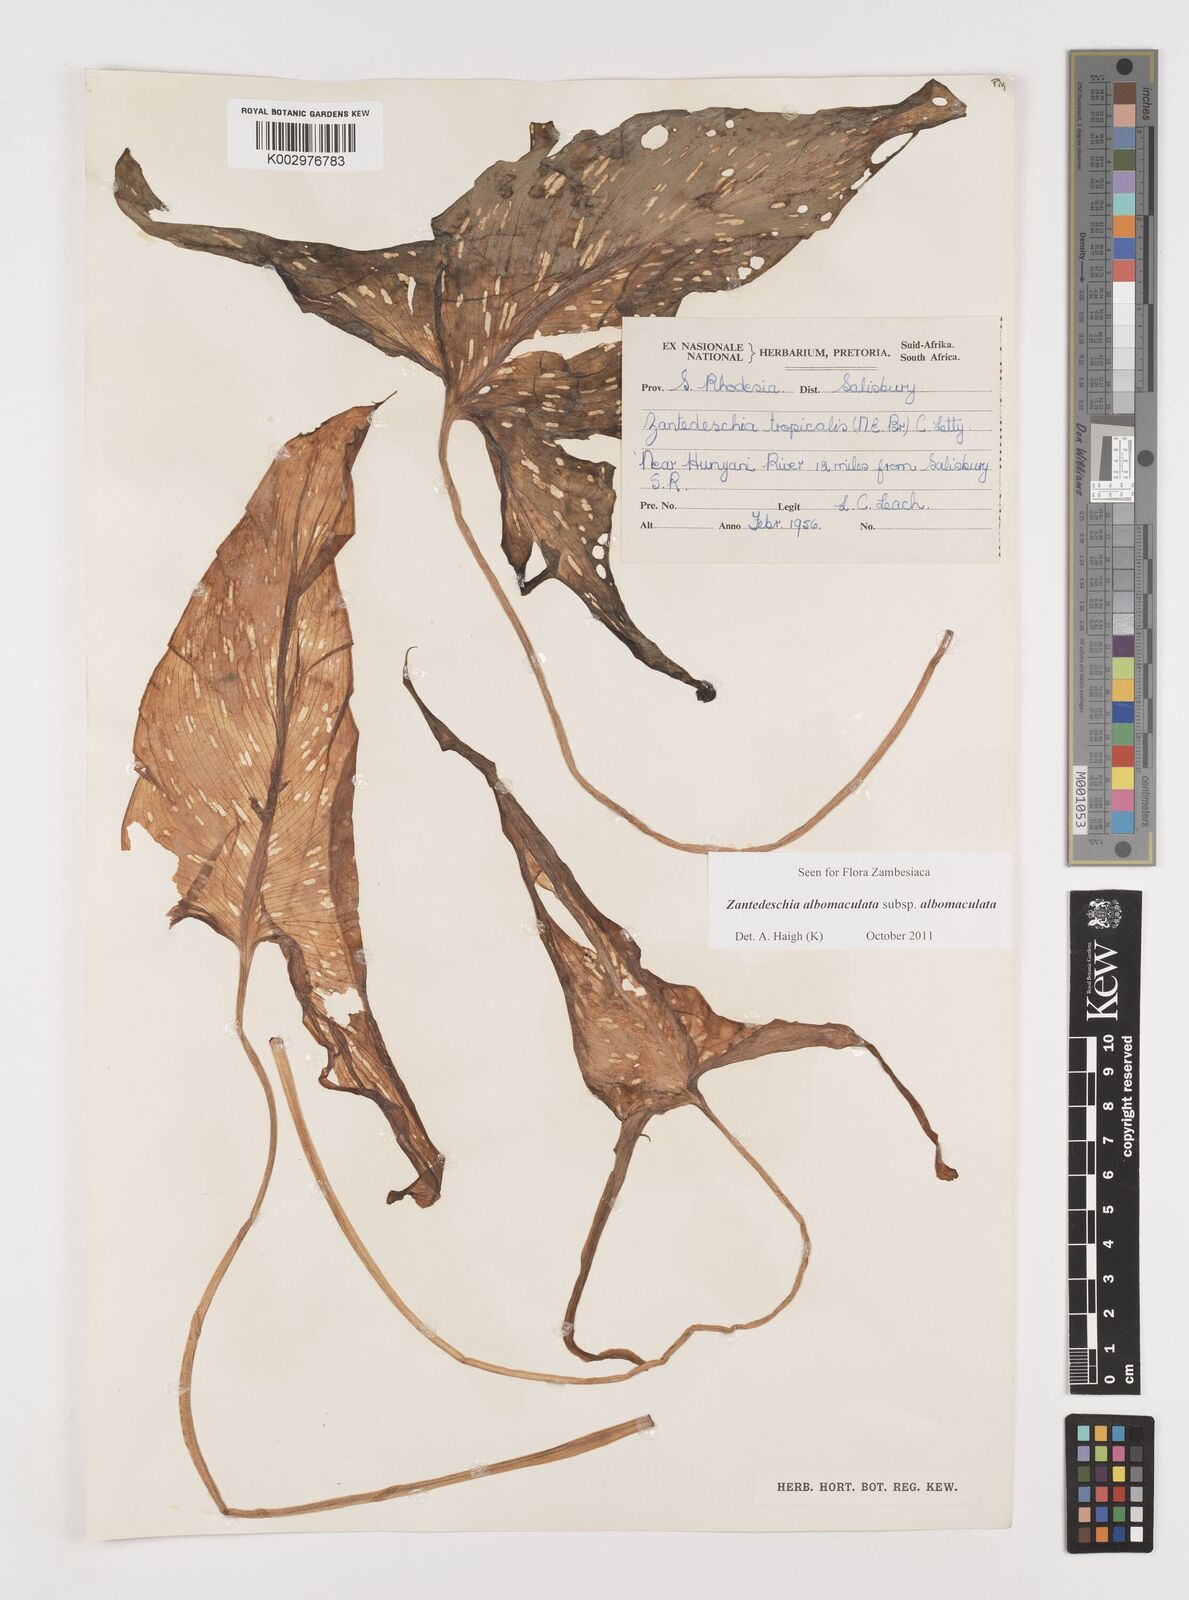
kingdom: Plantae
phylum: Tracheophyta
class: Liliopsida
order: Alismatales
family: Araceae
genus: Zantedeschia
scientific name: Zantedeschia albomaculata
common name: Spotted calla lily
